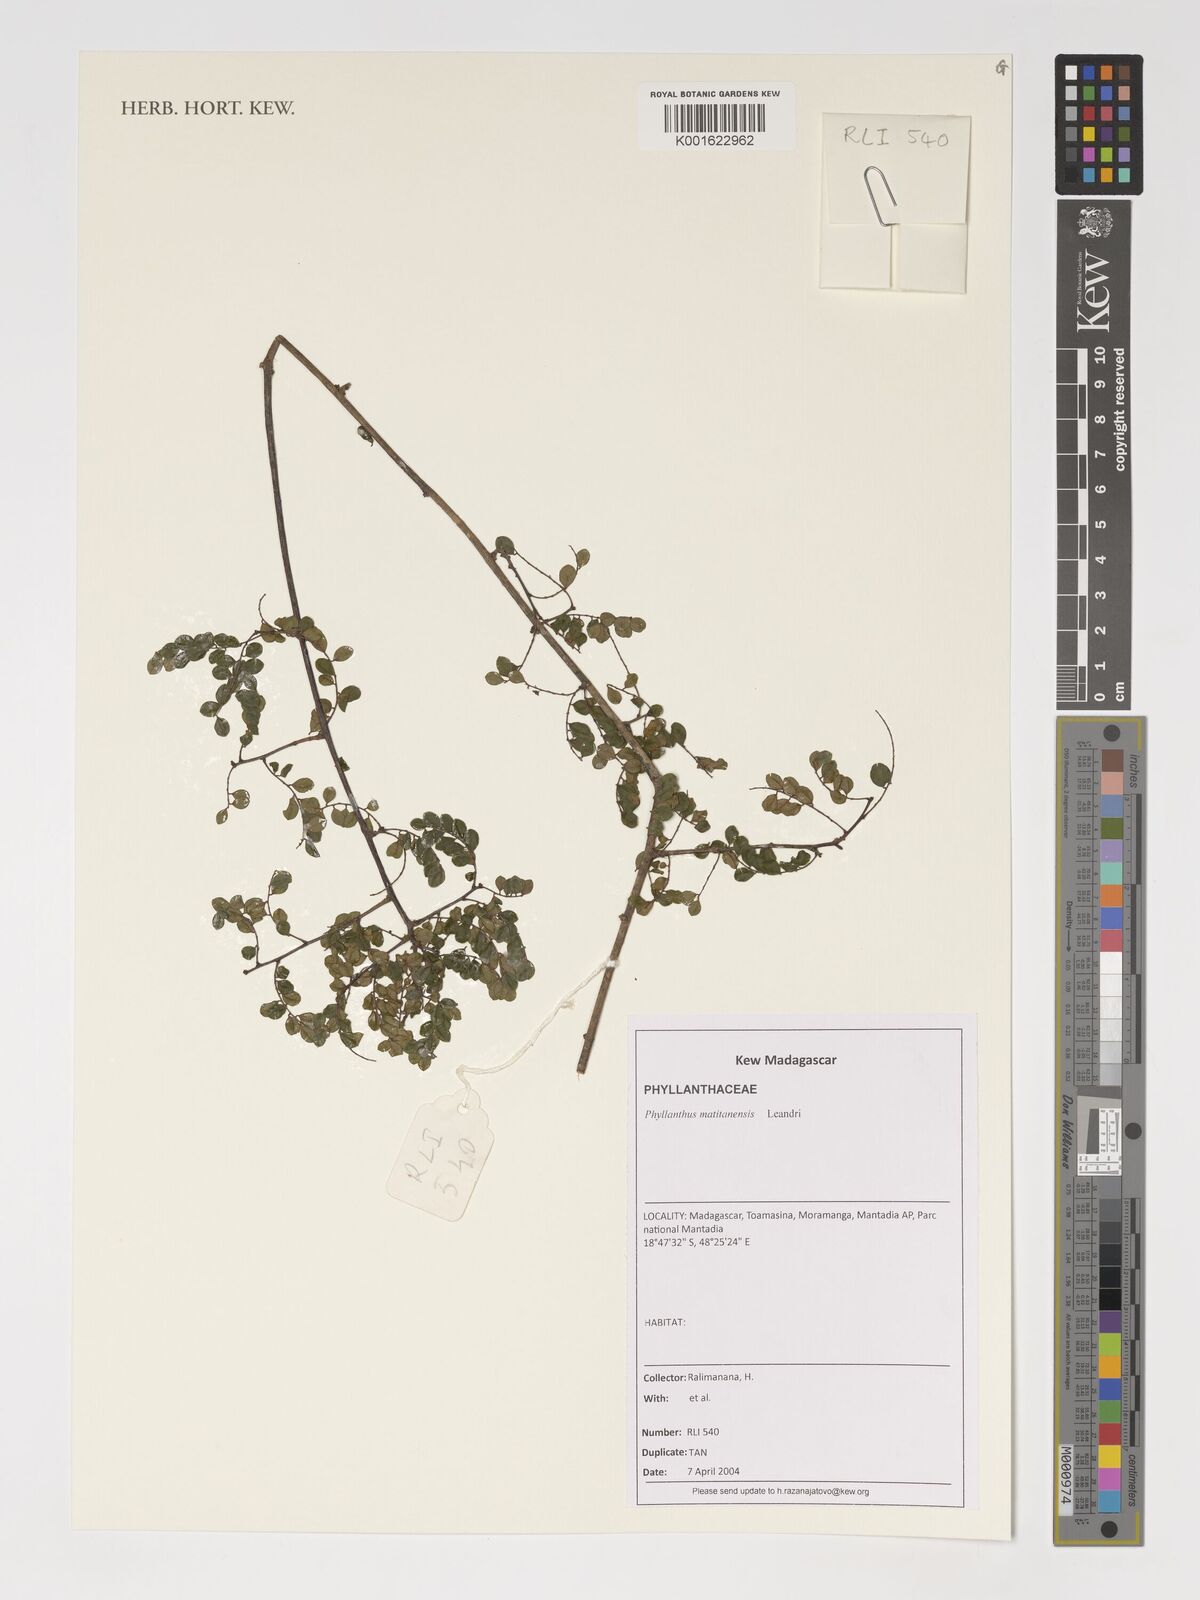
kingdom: Plantae
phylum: Tracheophyta
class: Magnoliopsida
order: Malpighiales
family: Phyllanthaceae
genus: Phyllanthus
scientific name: Phyllanthus matitanensis
